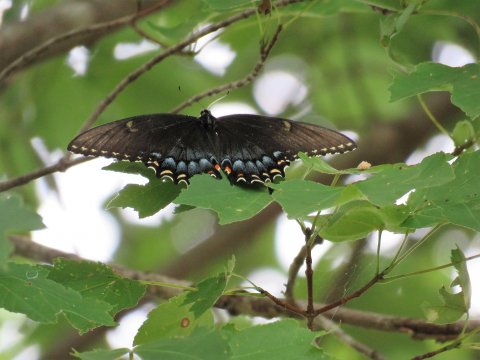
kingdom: Animalia
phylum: Arthropoda
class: Insecta
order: Lepidoptera
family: Papilionidae
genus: Pterourus
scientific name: Pterourus glaucus
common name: Eastern Tiger Swallowtail
